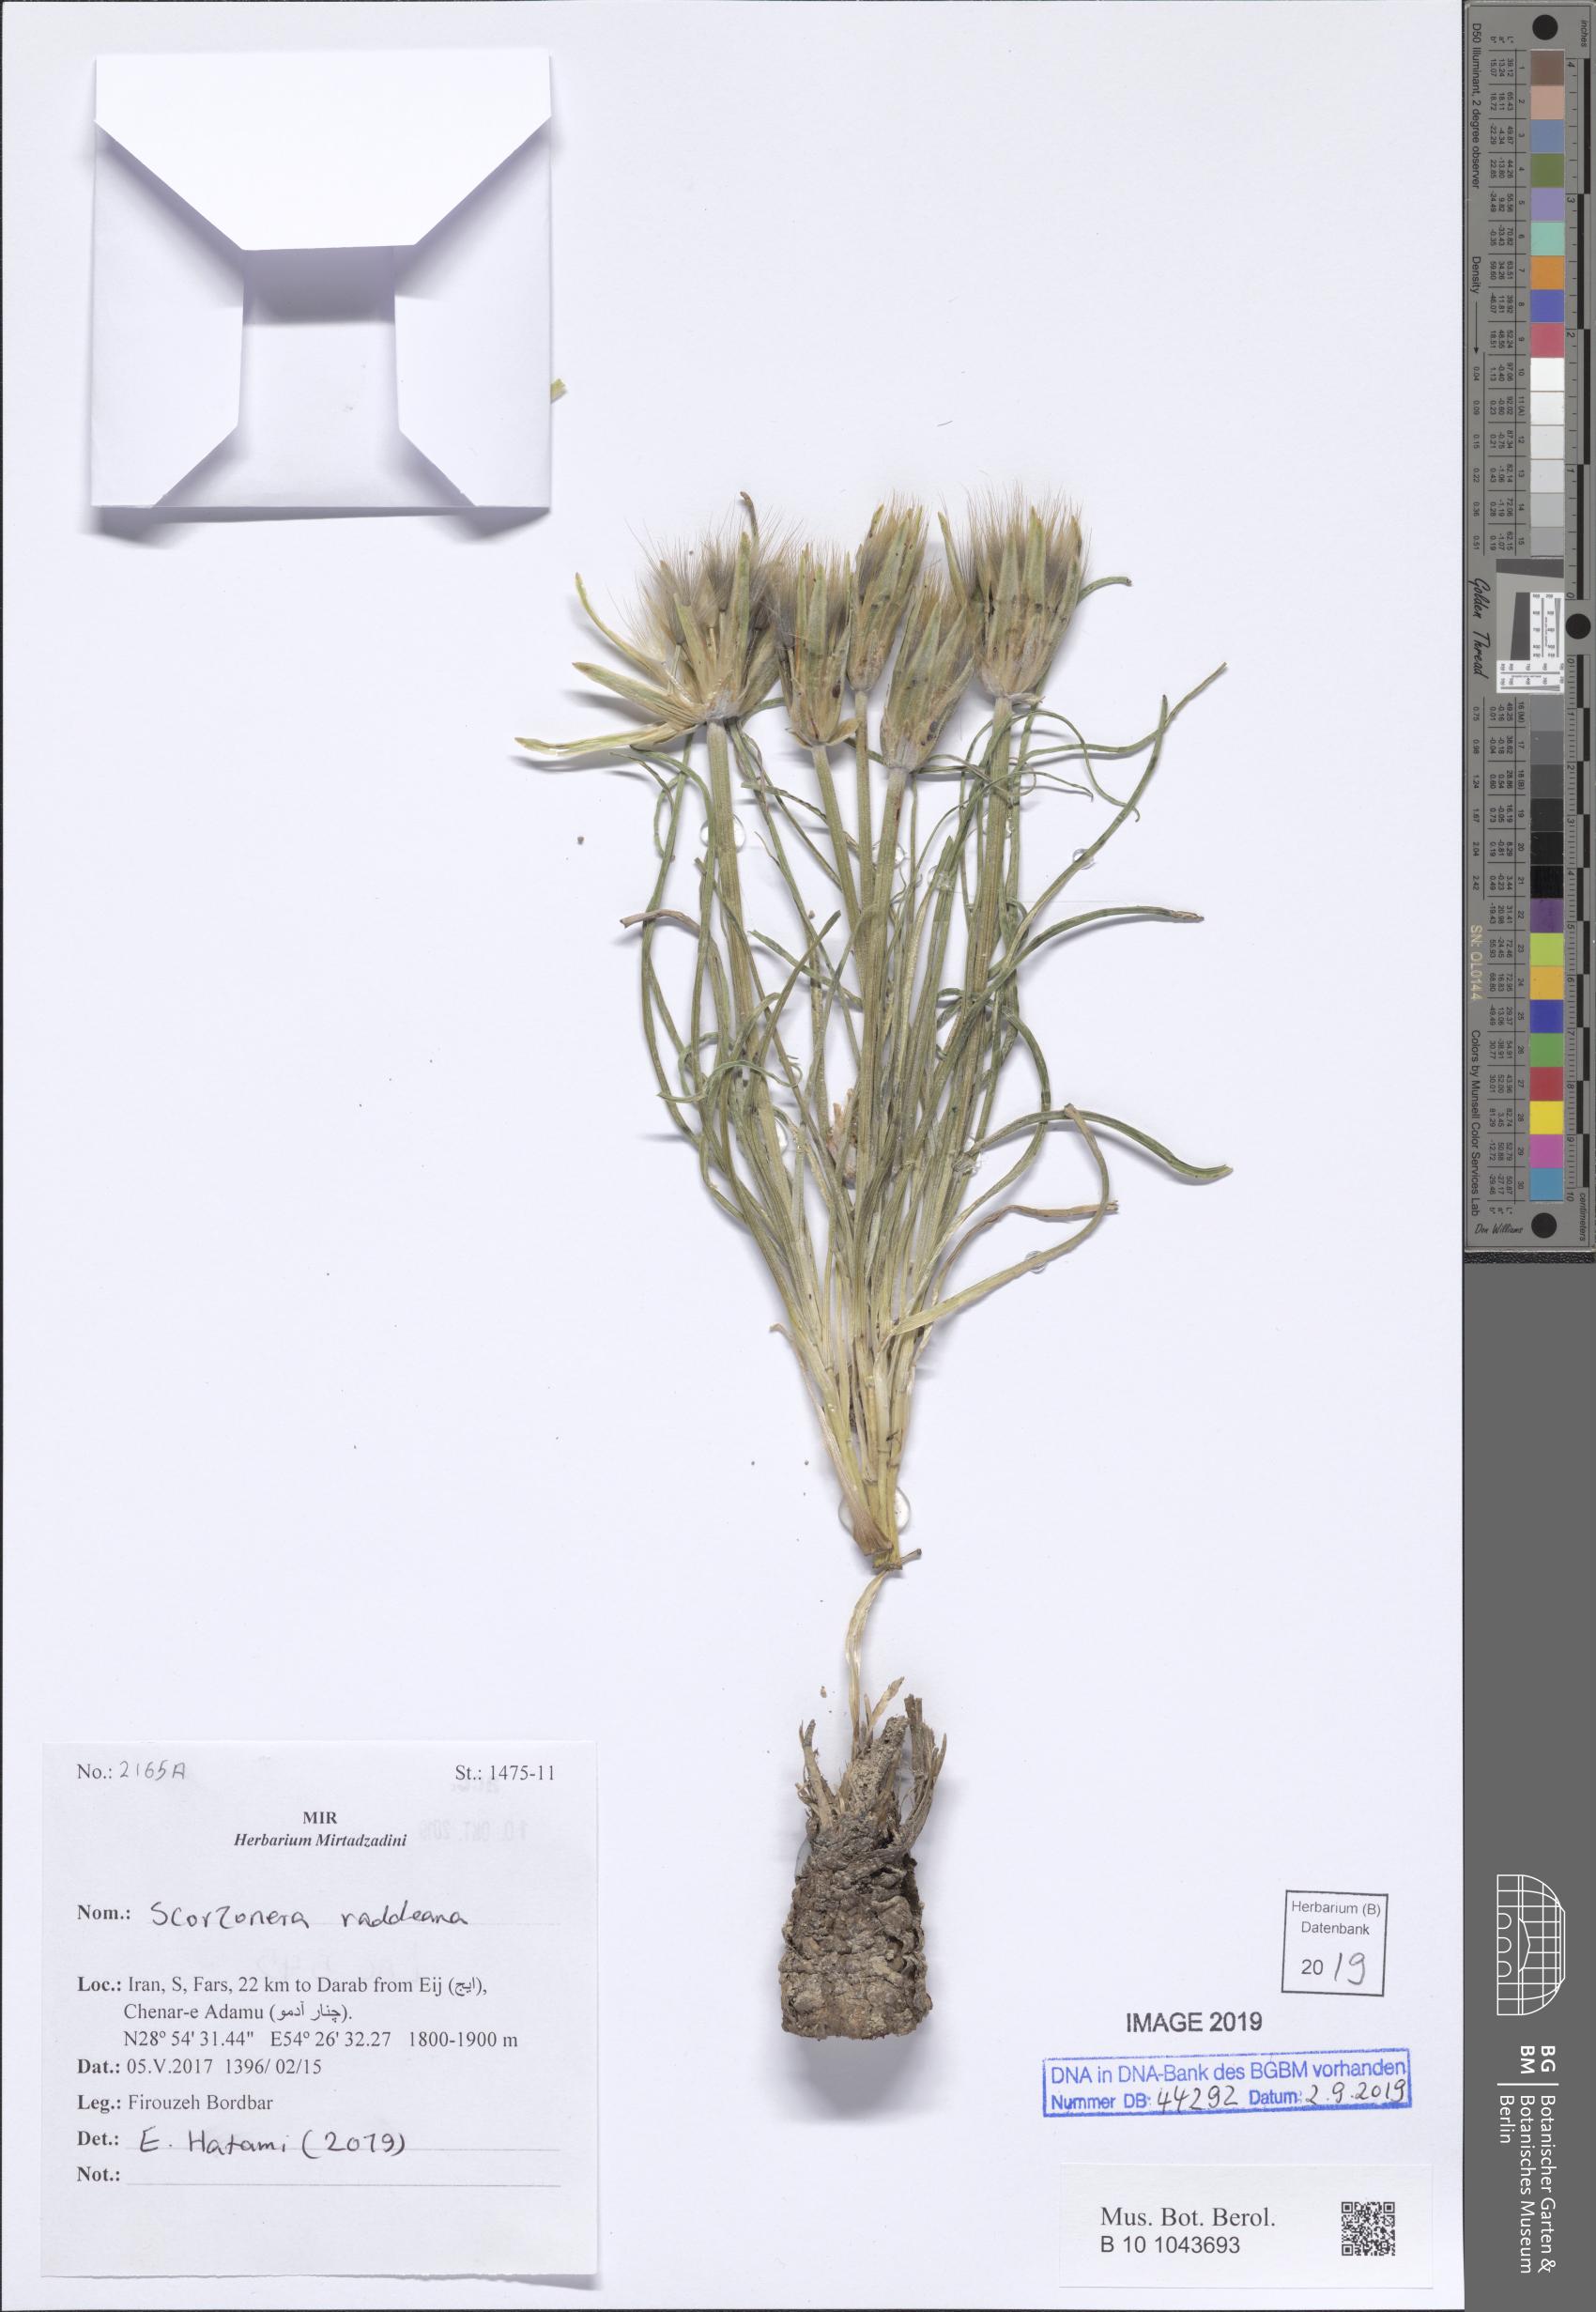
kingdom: Plantae
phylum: Tracheophyta
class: Magnoliopsida
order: Asterales
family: Asteraceae
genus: Candollea
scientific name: Candollea raddeana
